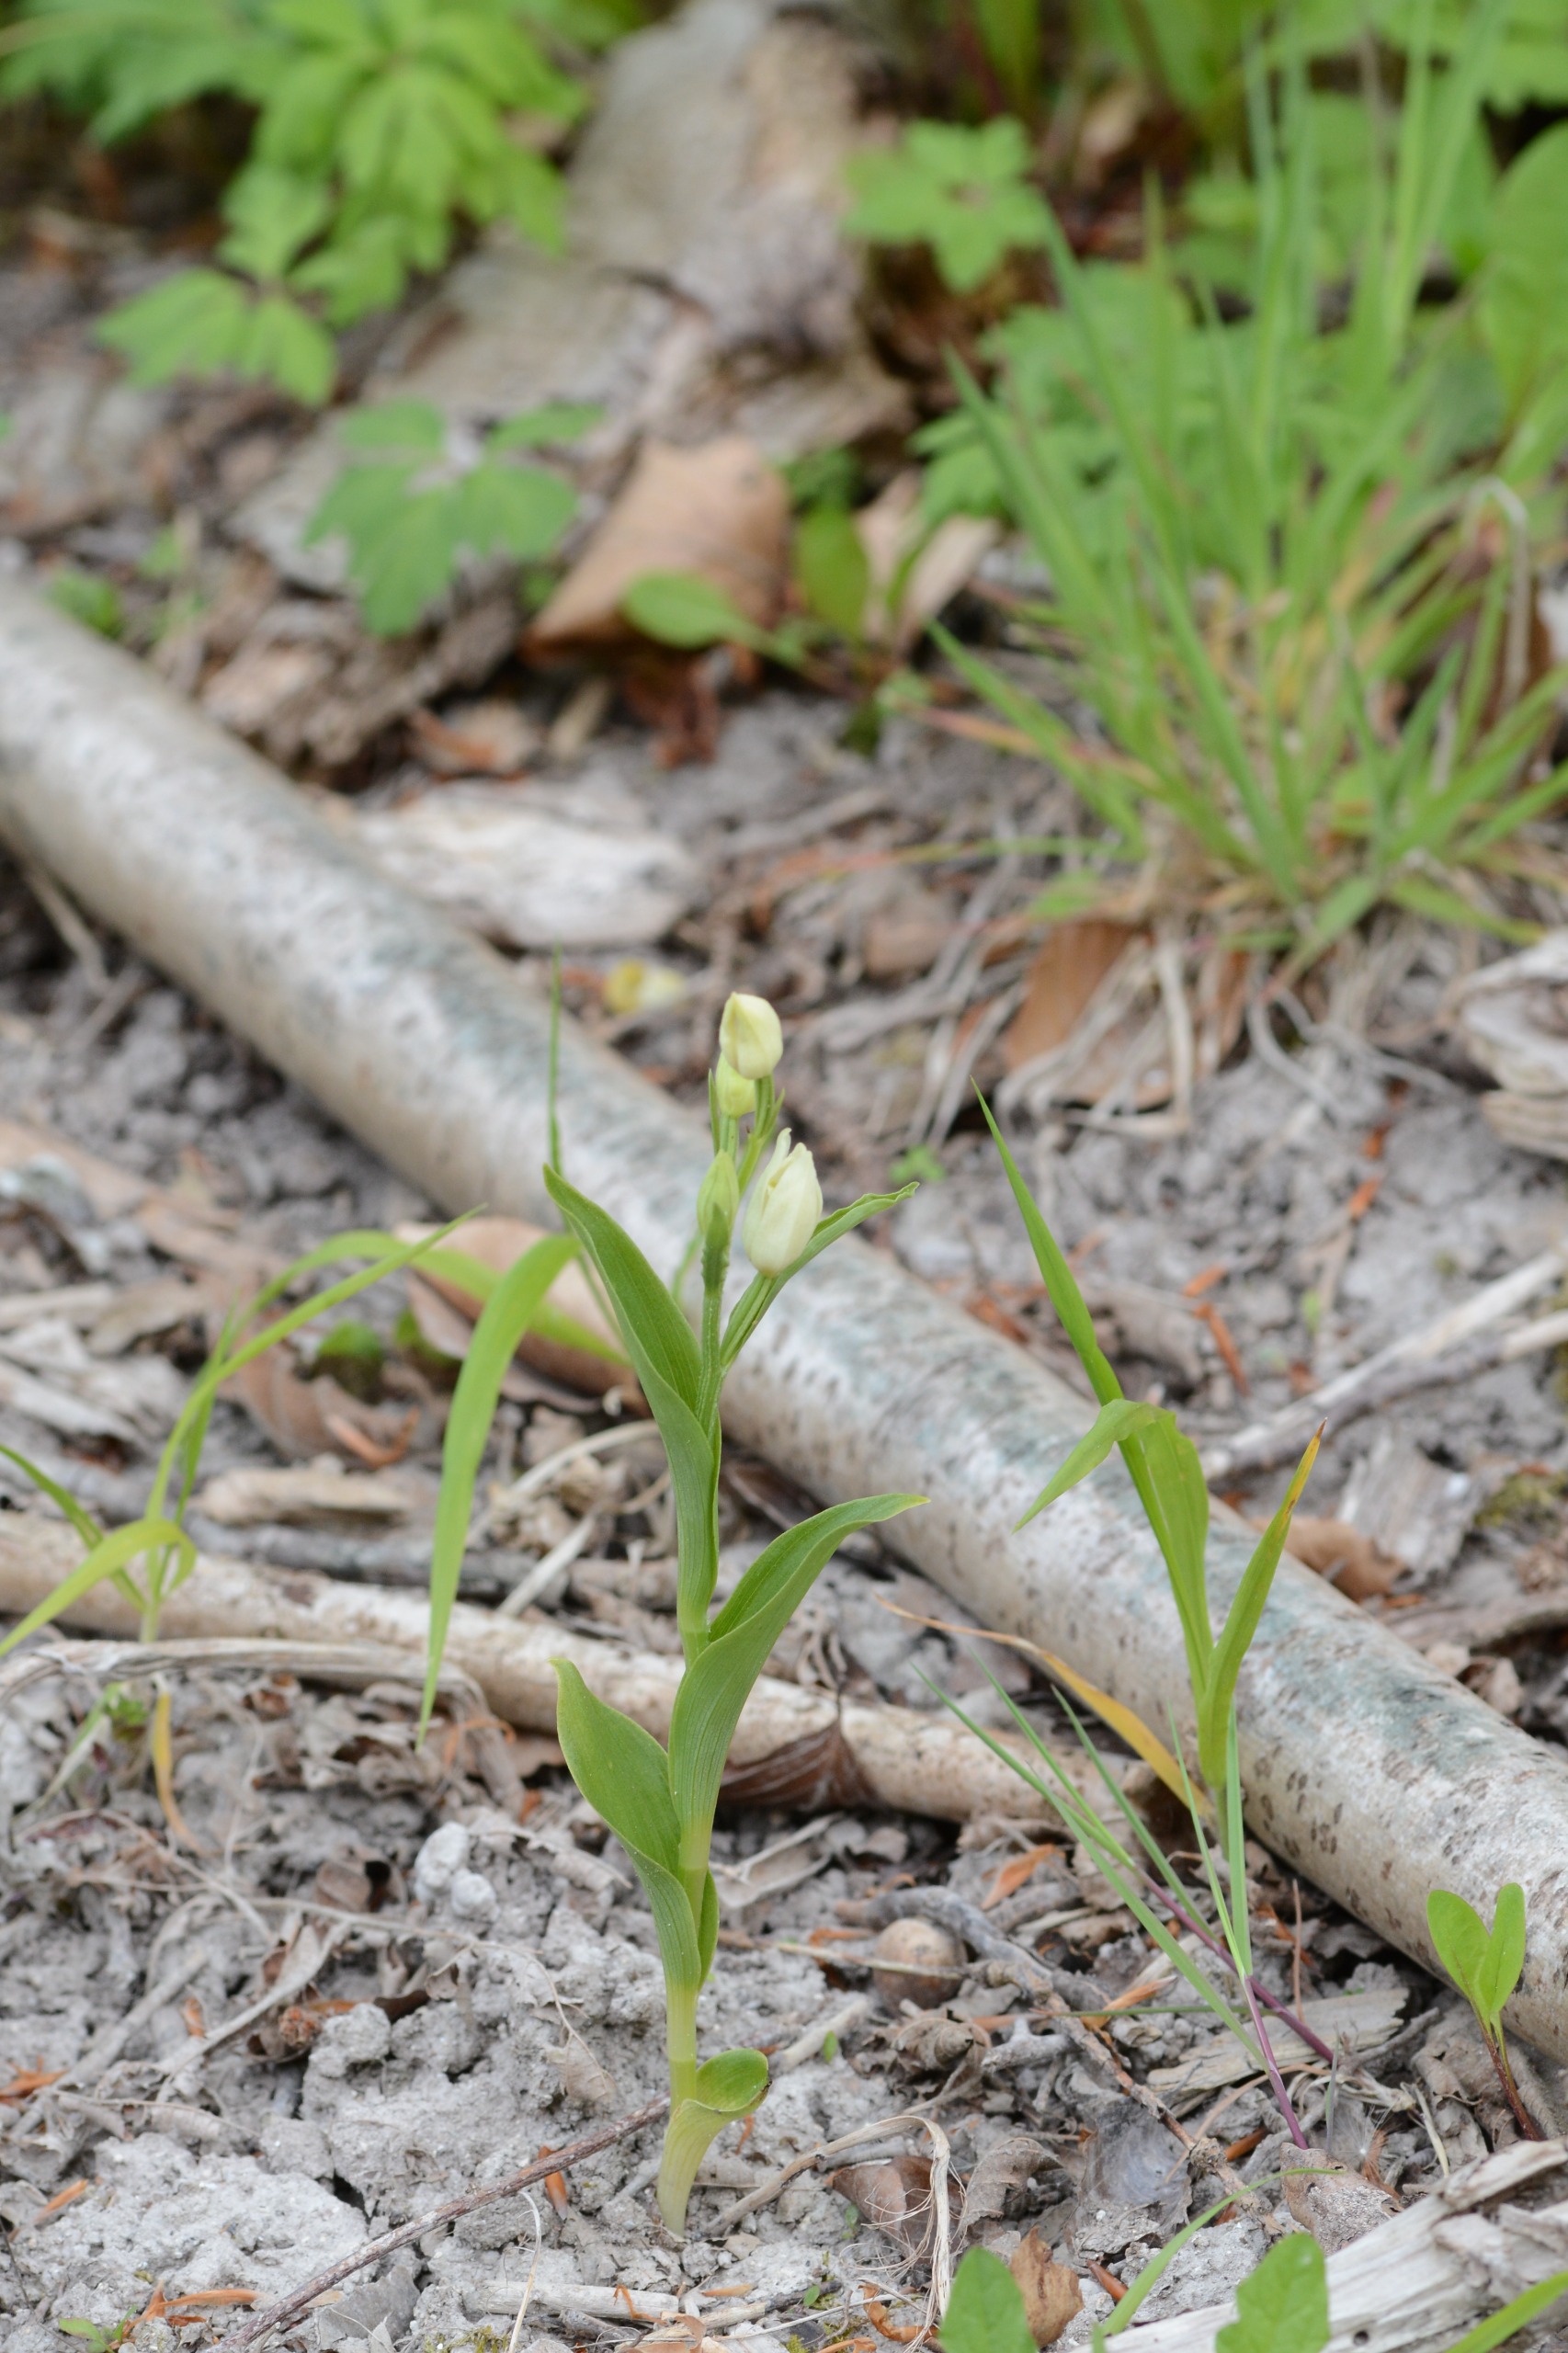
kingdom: Plantae
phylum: Tracheophyta
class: Liliopsida
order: Asparagales
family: Orchidaceae
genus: Cephalanthera
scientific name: Cephalanthera damasonium
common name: Hvidgul skovlilje
